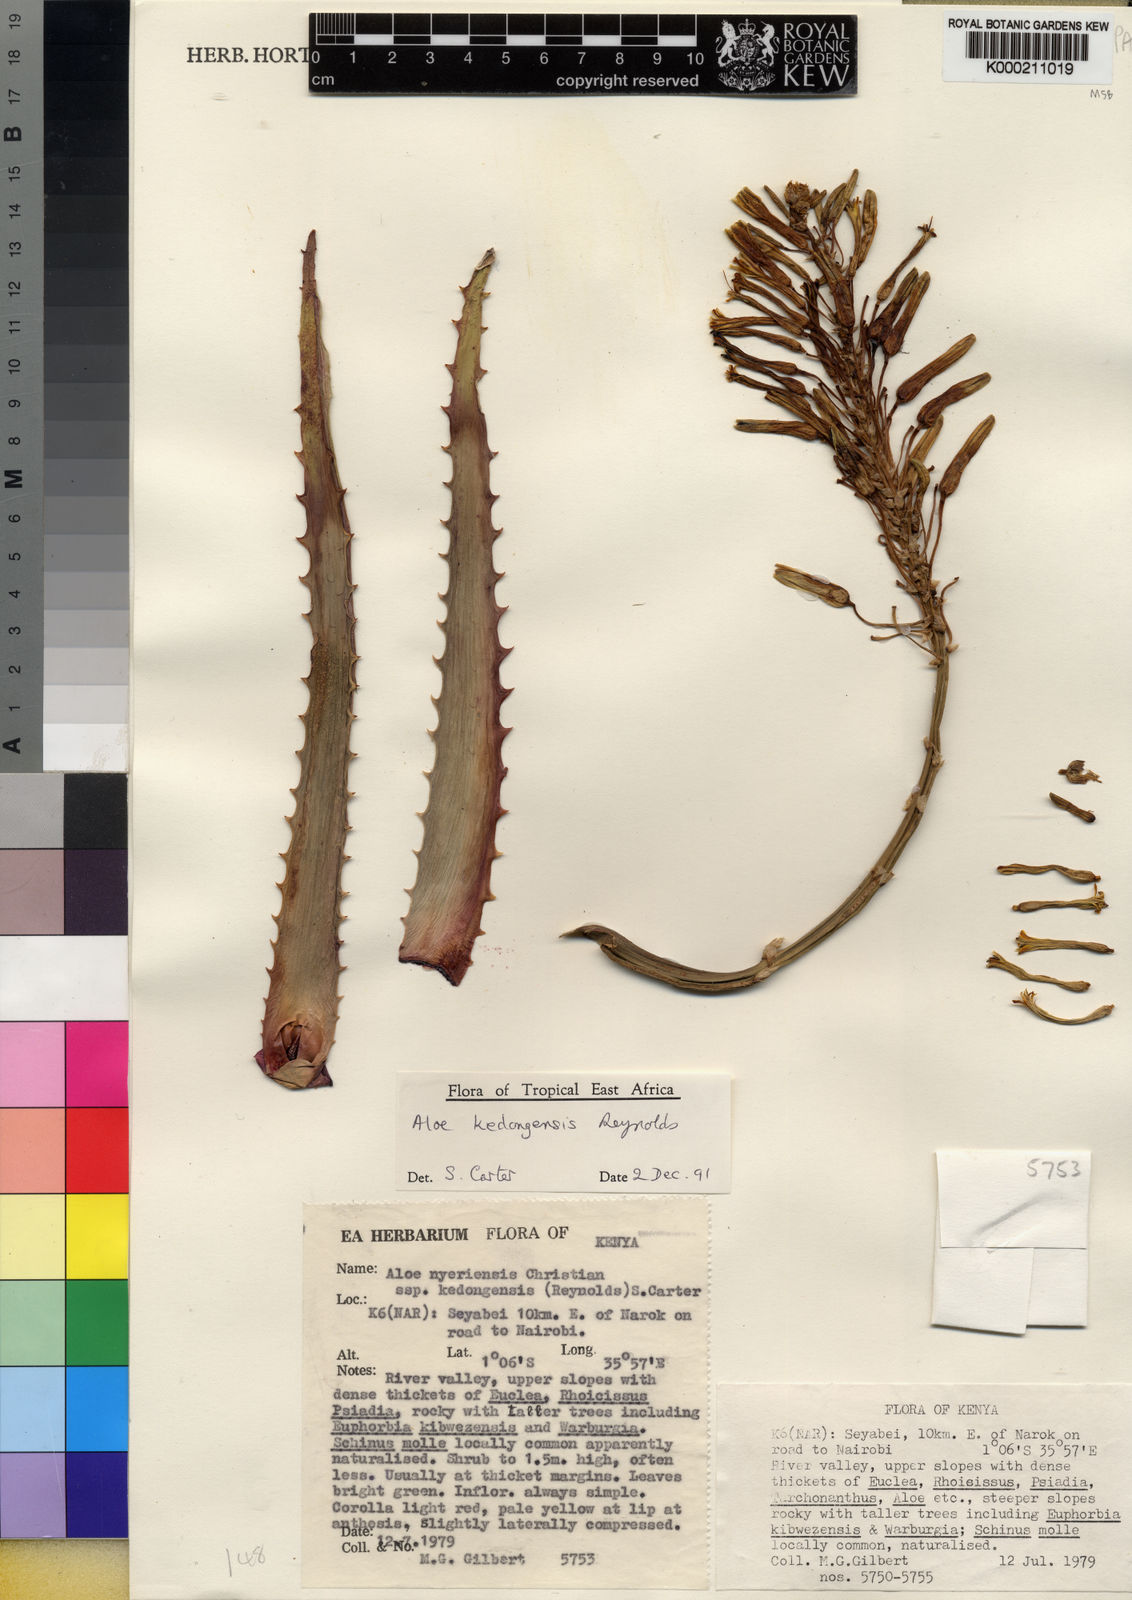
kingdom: Plantae
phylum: Tracheophyta
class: Liliopsida
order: Asparagales
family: Asphodelaceae
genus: Aloe
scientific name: Aloe kedongensis
